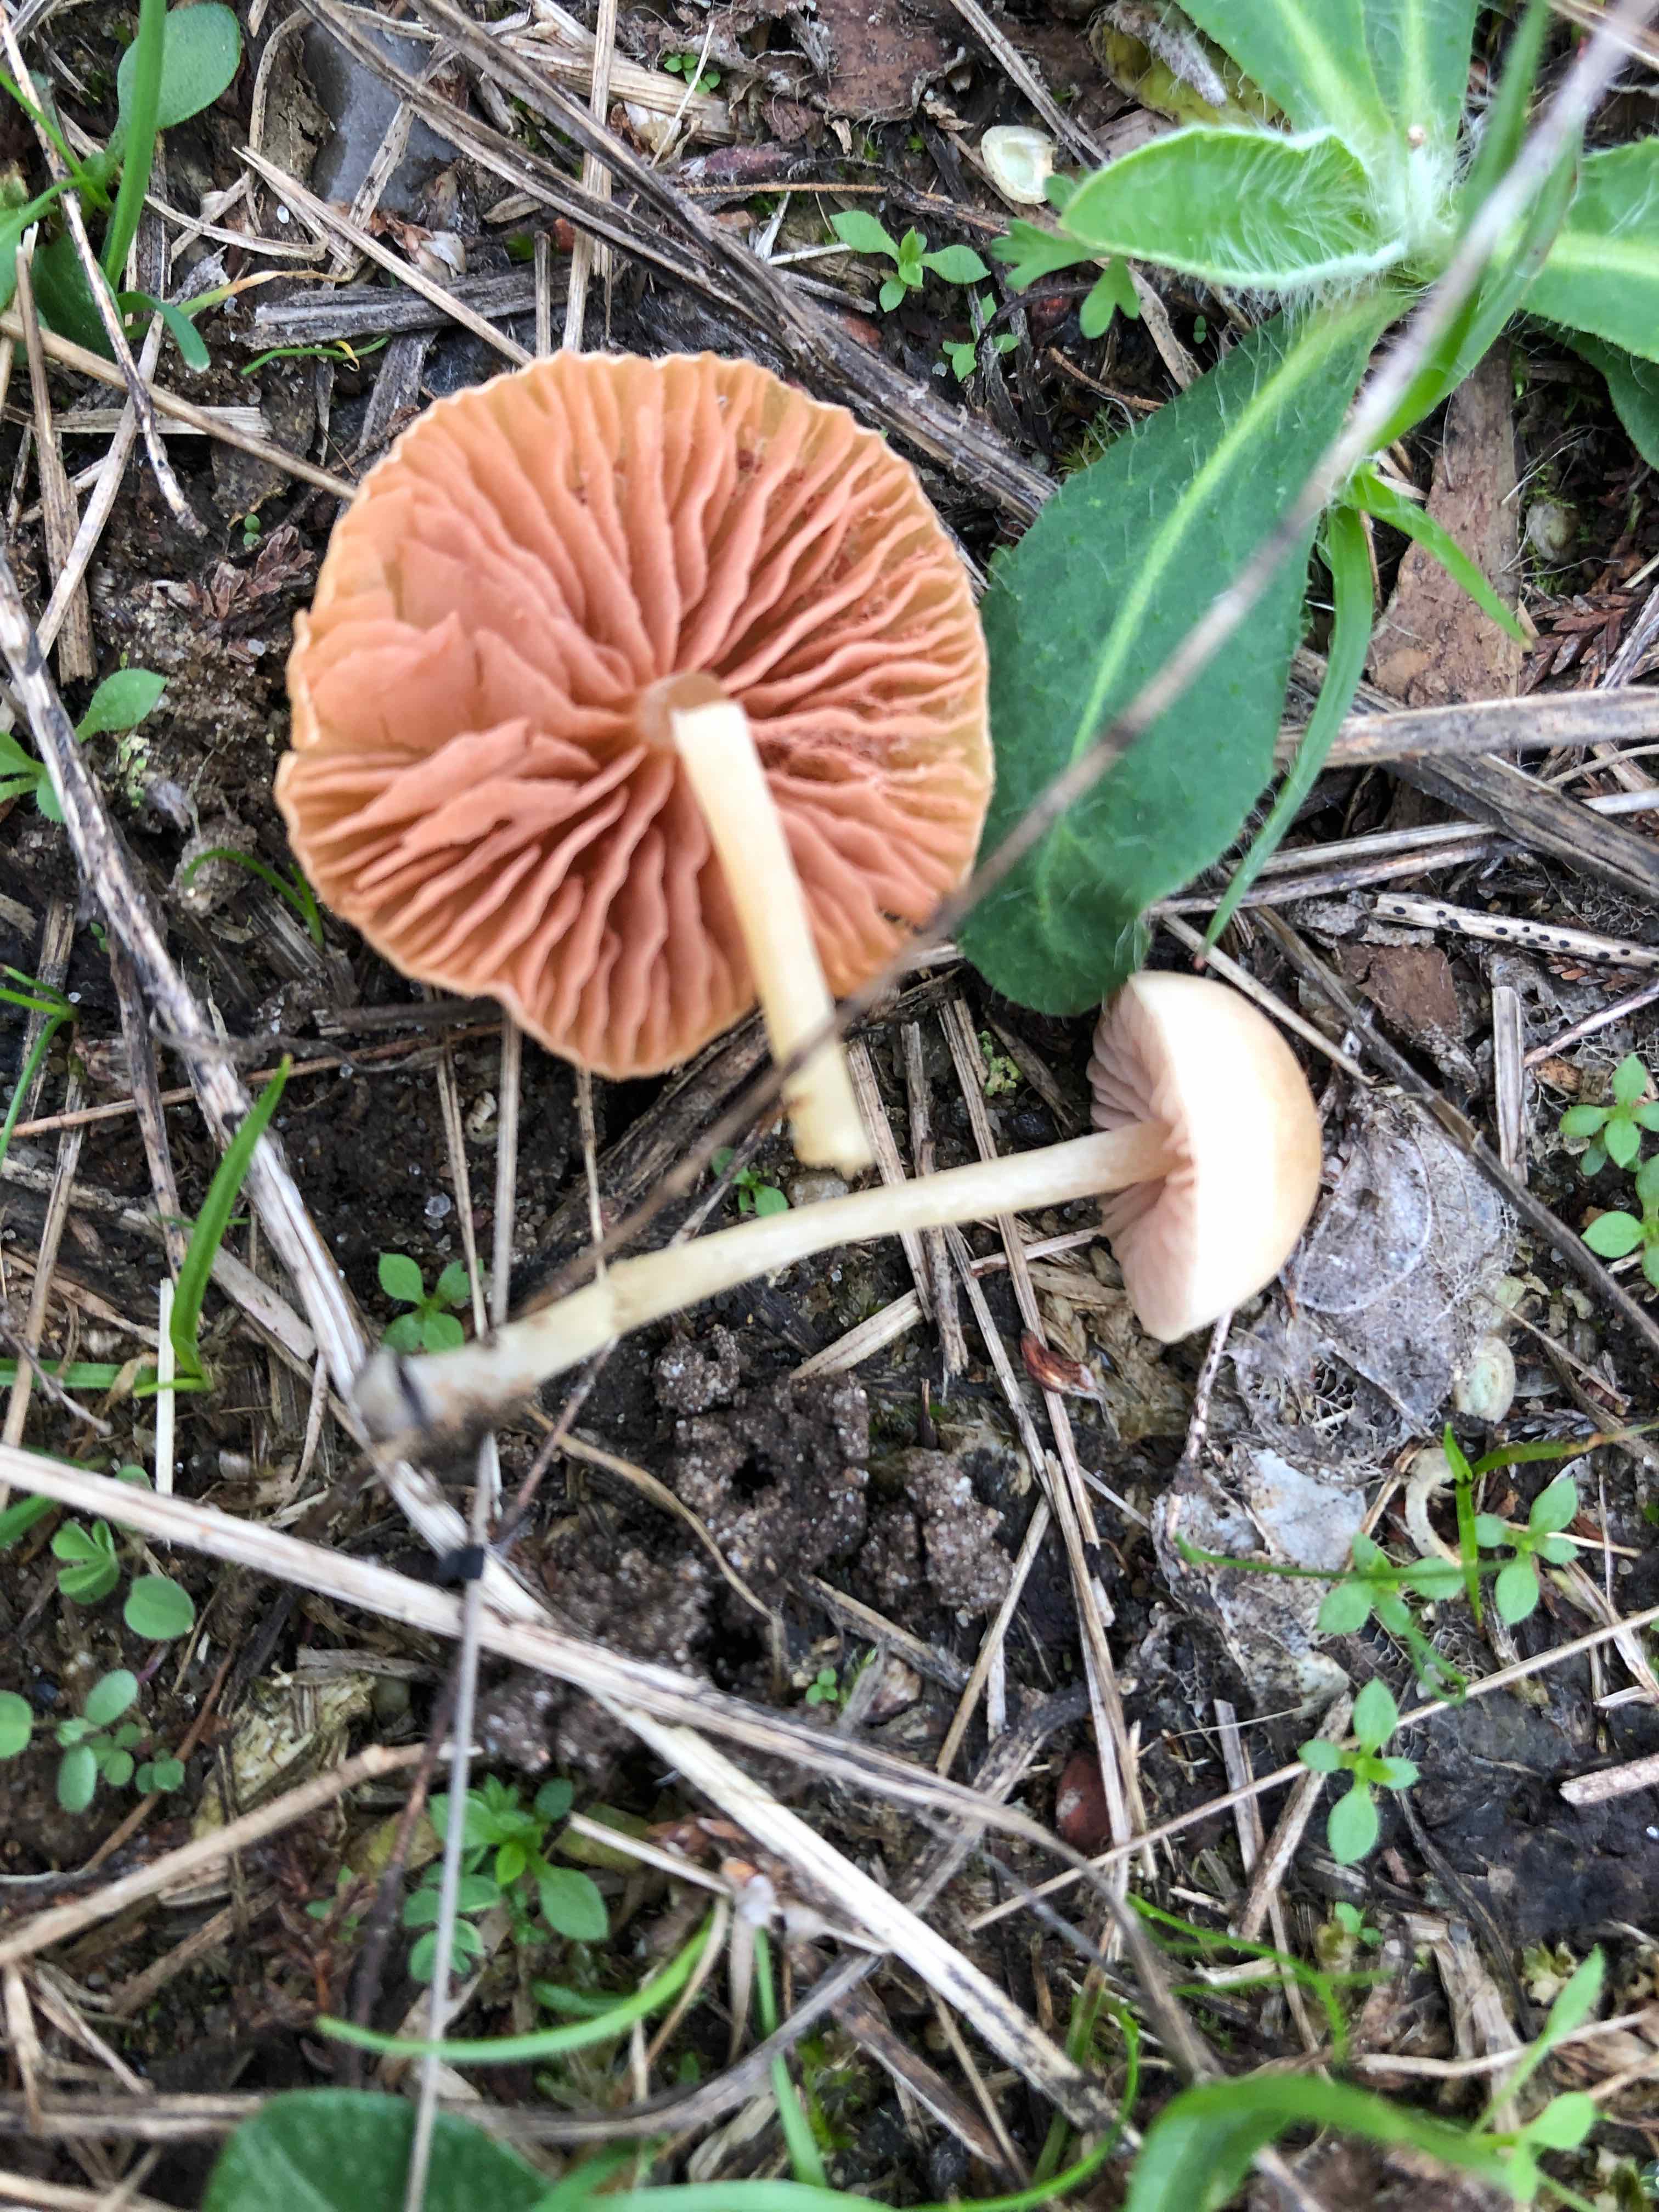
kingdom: Fungi
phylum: Basidiomycota
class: Agaricomycetes
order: Agaricales
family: Entolomataceae
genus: Entoloma
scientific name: Entoloma sericellum
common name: silkehvid rødblad
